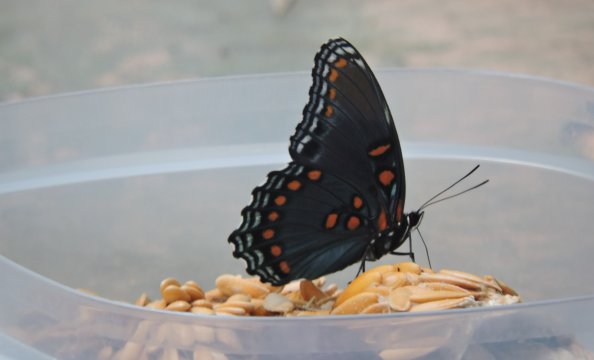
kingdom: Animalia
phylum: Arthropoda
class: Insecta
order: Lepidoptera
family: Nymphalidae
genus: Limenitis
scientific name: Limenitis arthemis
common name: Red-spotted Admiral
